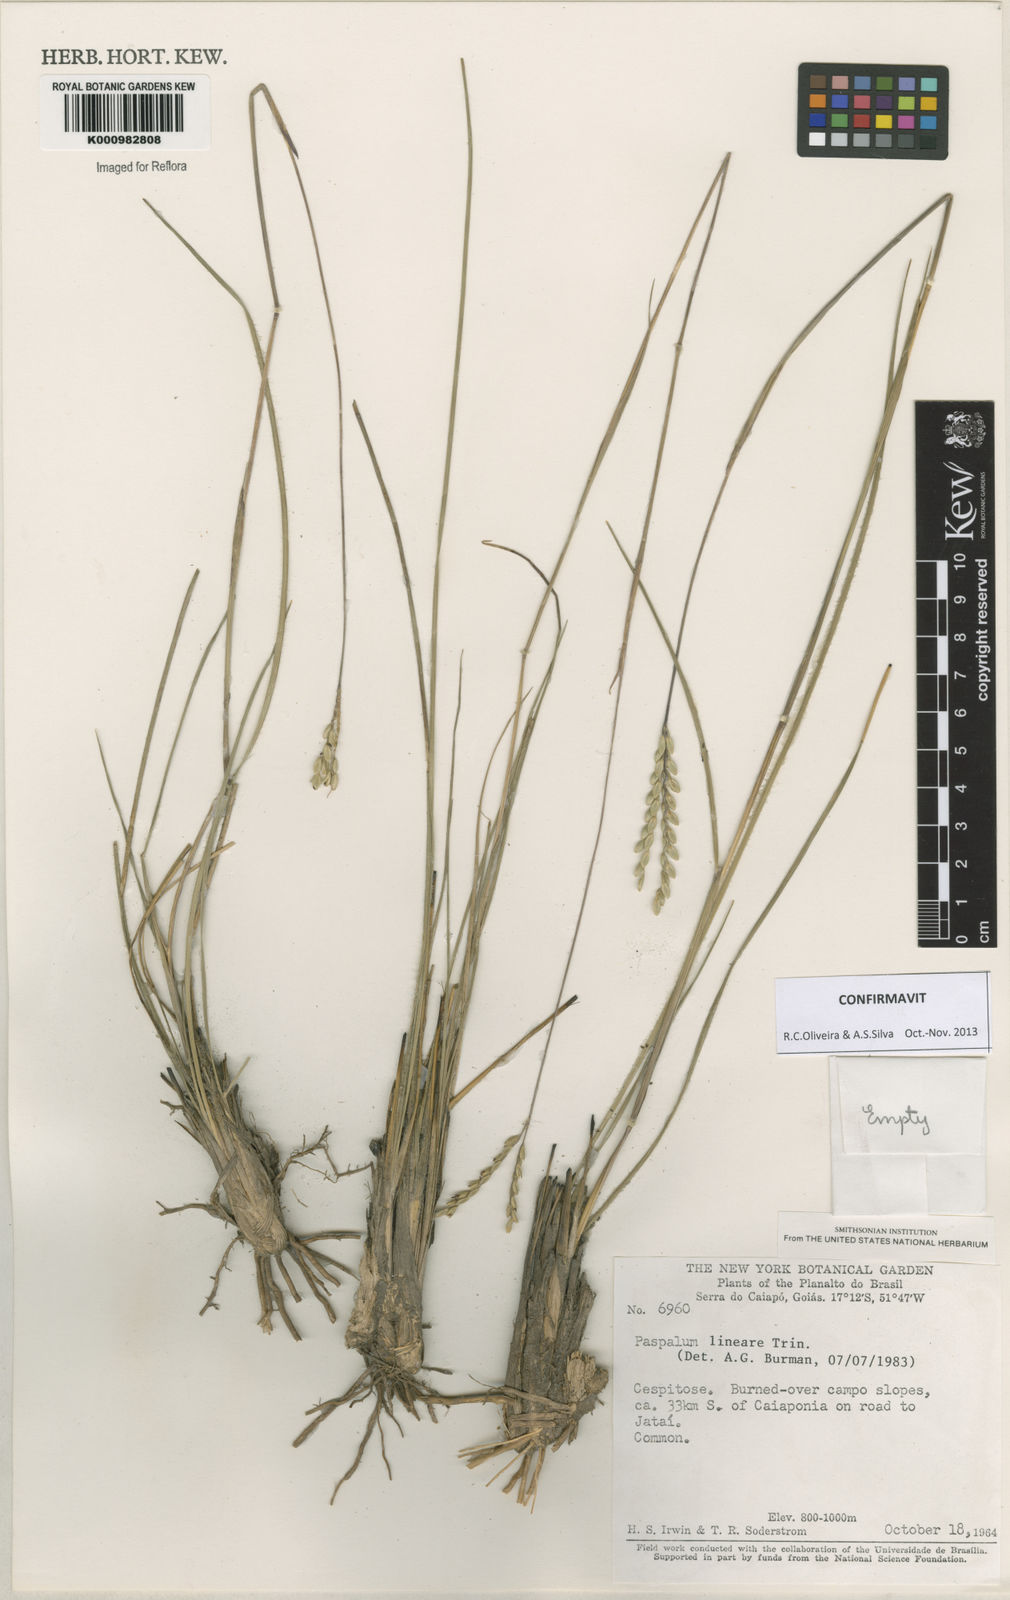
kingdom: Plantae
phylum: Tracheophyta
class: Liliopsida
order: Poales
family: Poaceae
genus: Paspalum
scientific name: Paspalum lineare
